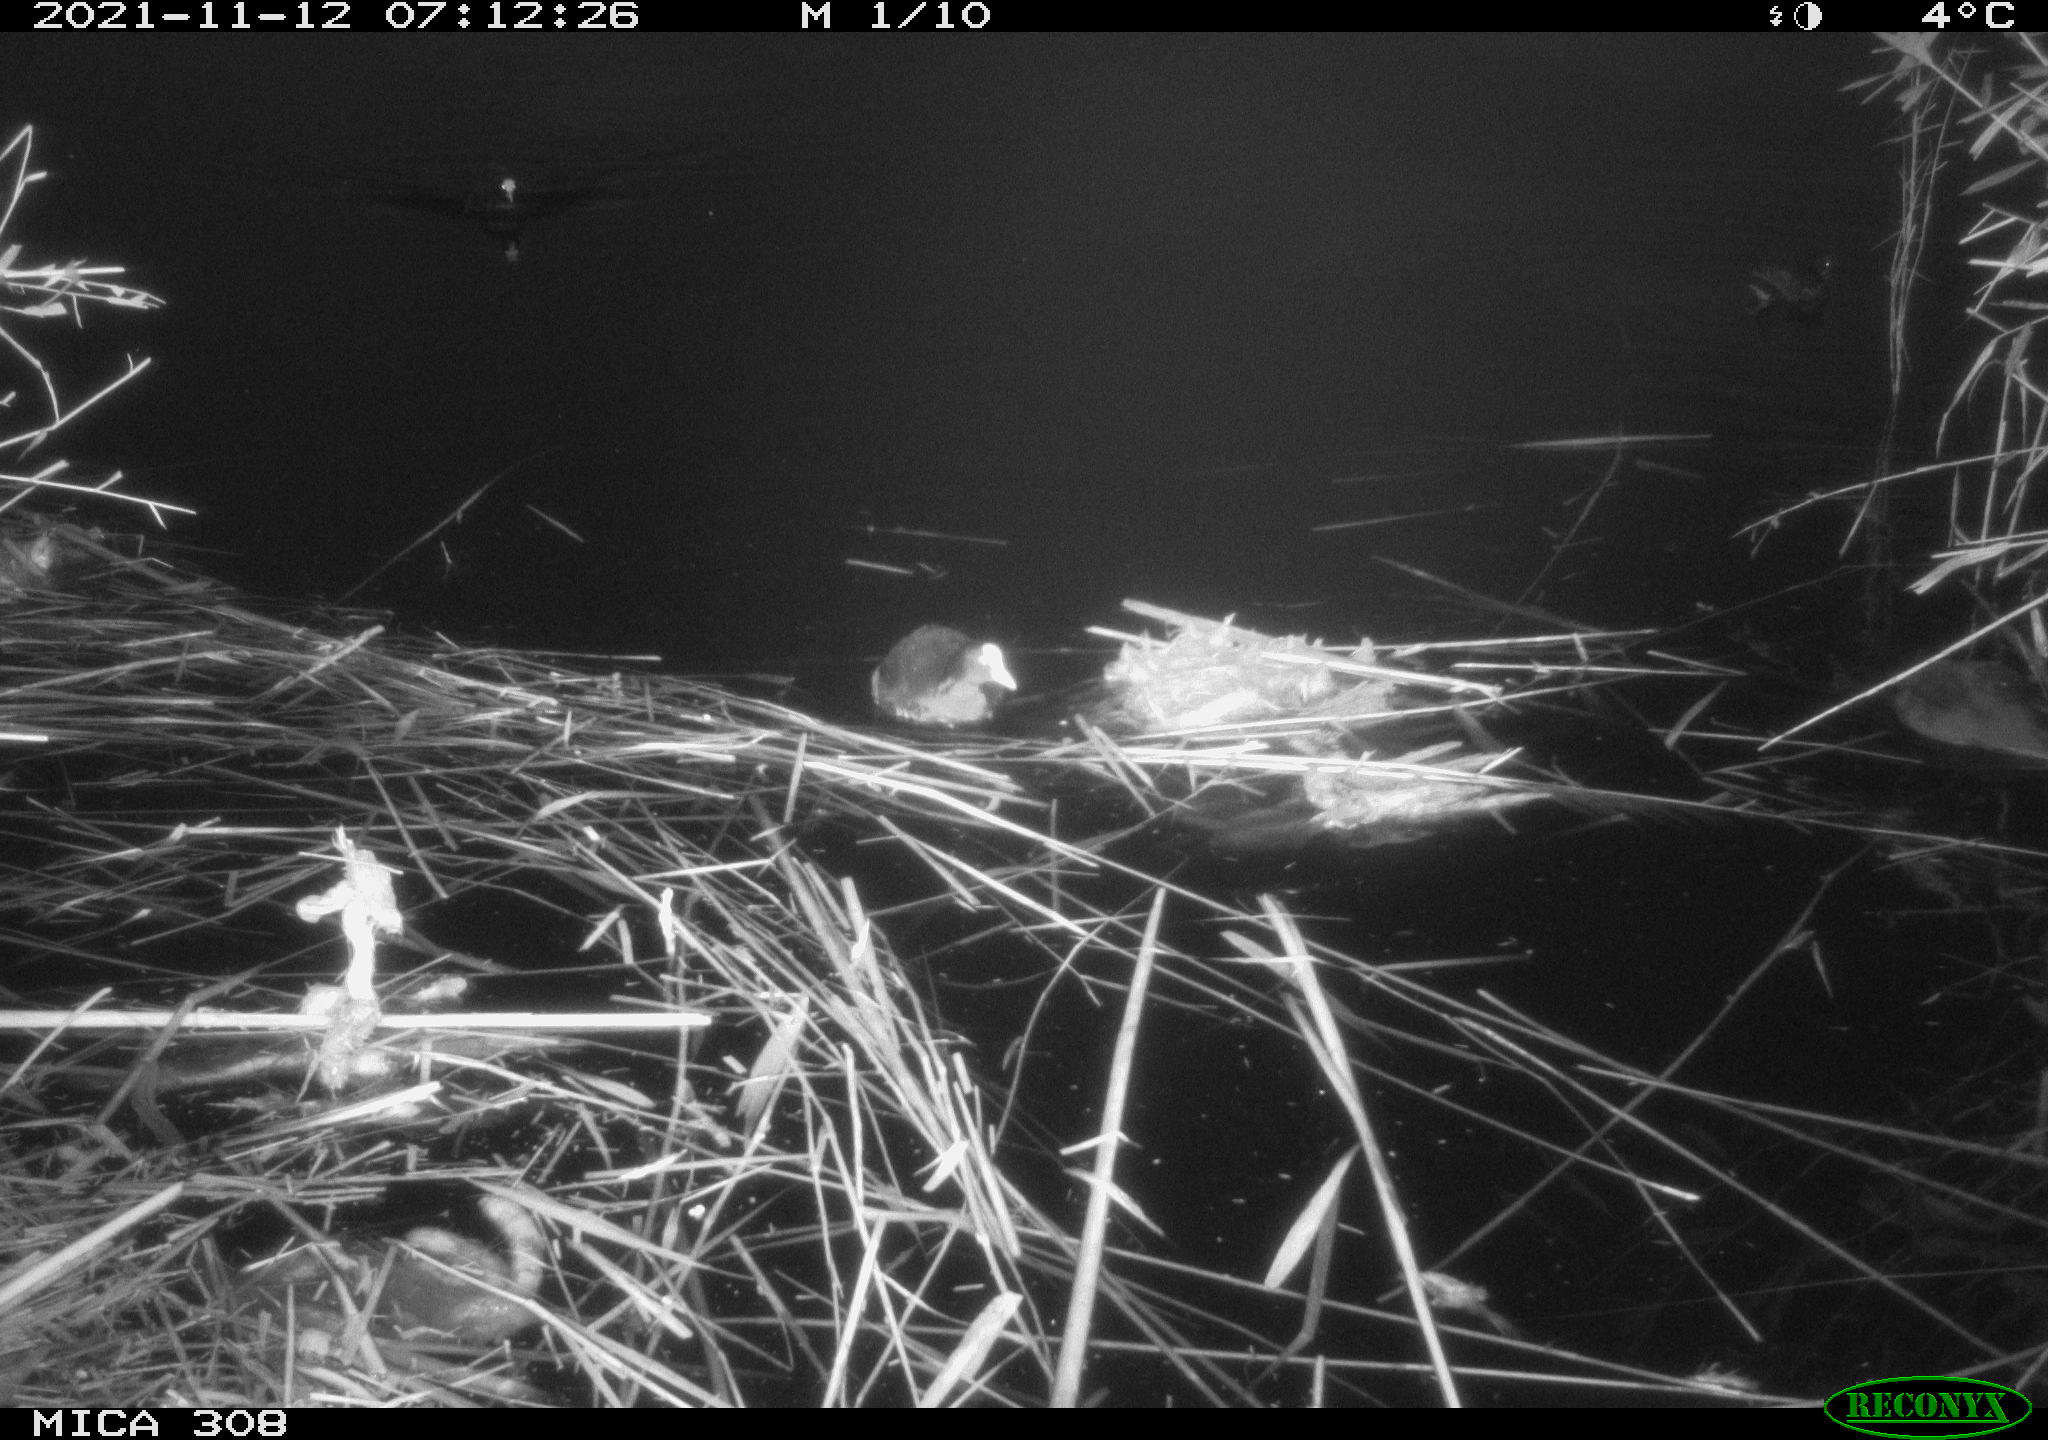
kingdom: Animalia
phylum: Chordata
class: Aves
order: Anseriformes
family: Anatidae
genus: Anas
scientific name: Anas platyrhynchos
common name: Mallard
